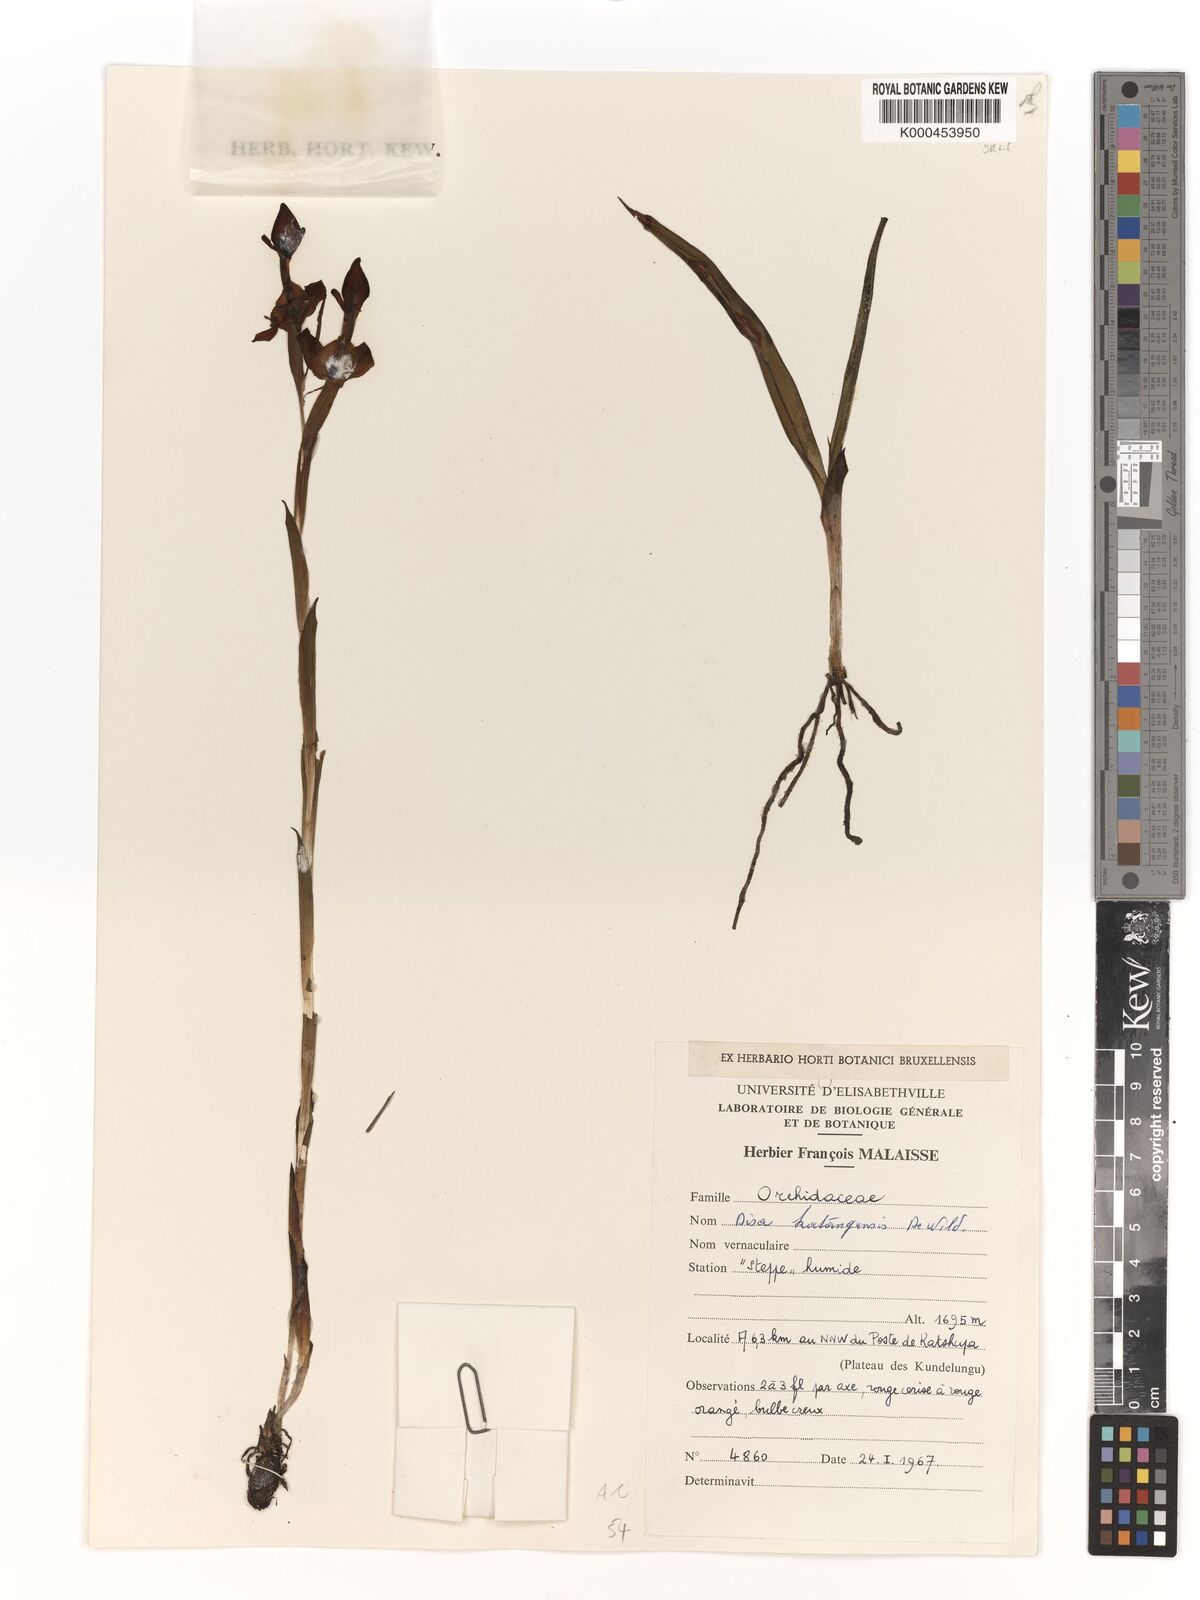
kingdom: Plantae
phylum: Tracheophyta
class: Liliopsida
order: Asparagales
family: Orchidaceae
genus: Disa
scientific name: Disa katangensis
